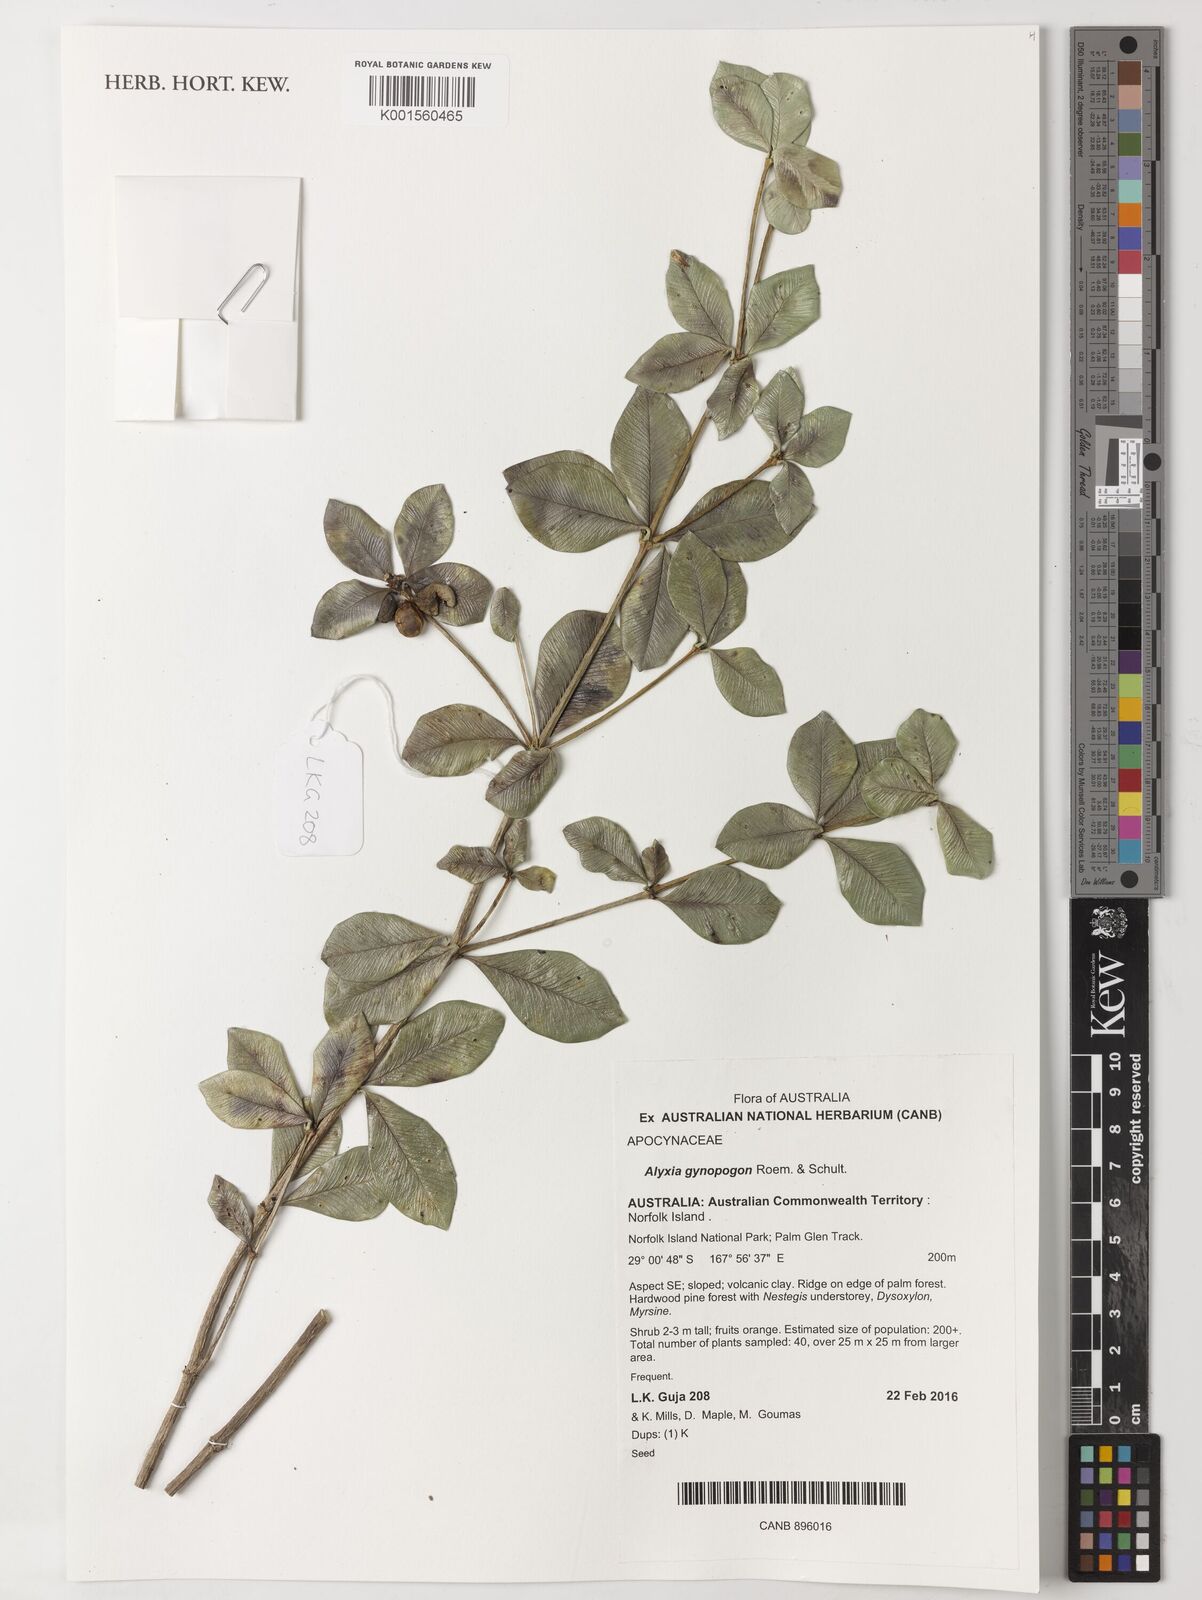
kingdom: Plantae
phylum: Tracheophyta
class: Magnoliopsida
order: Gentianales
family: Apocynaceae
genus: Alyxia
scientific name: Alyxia gynopogon
